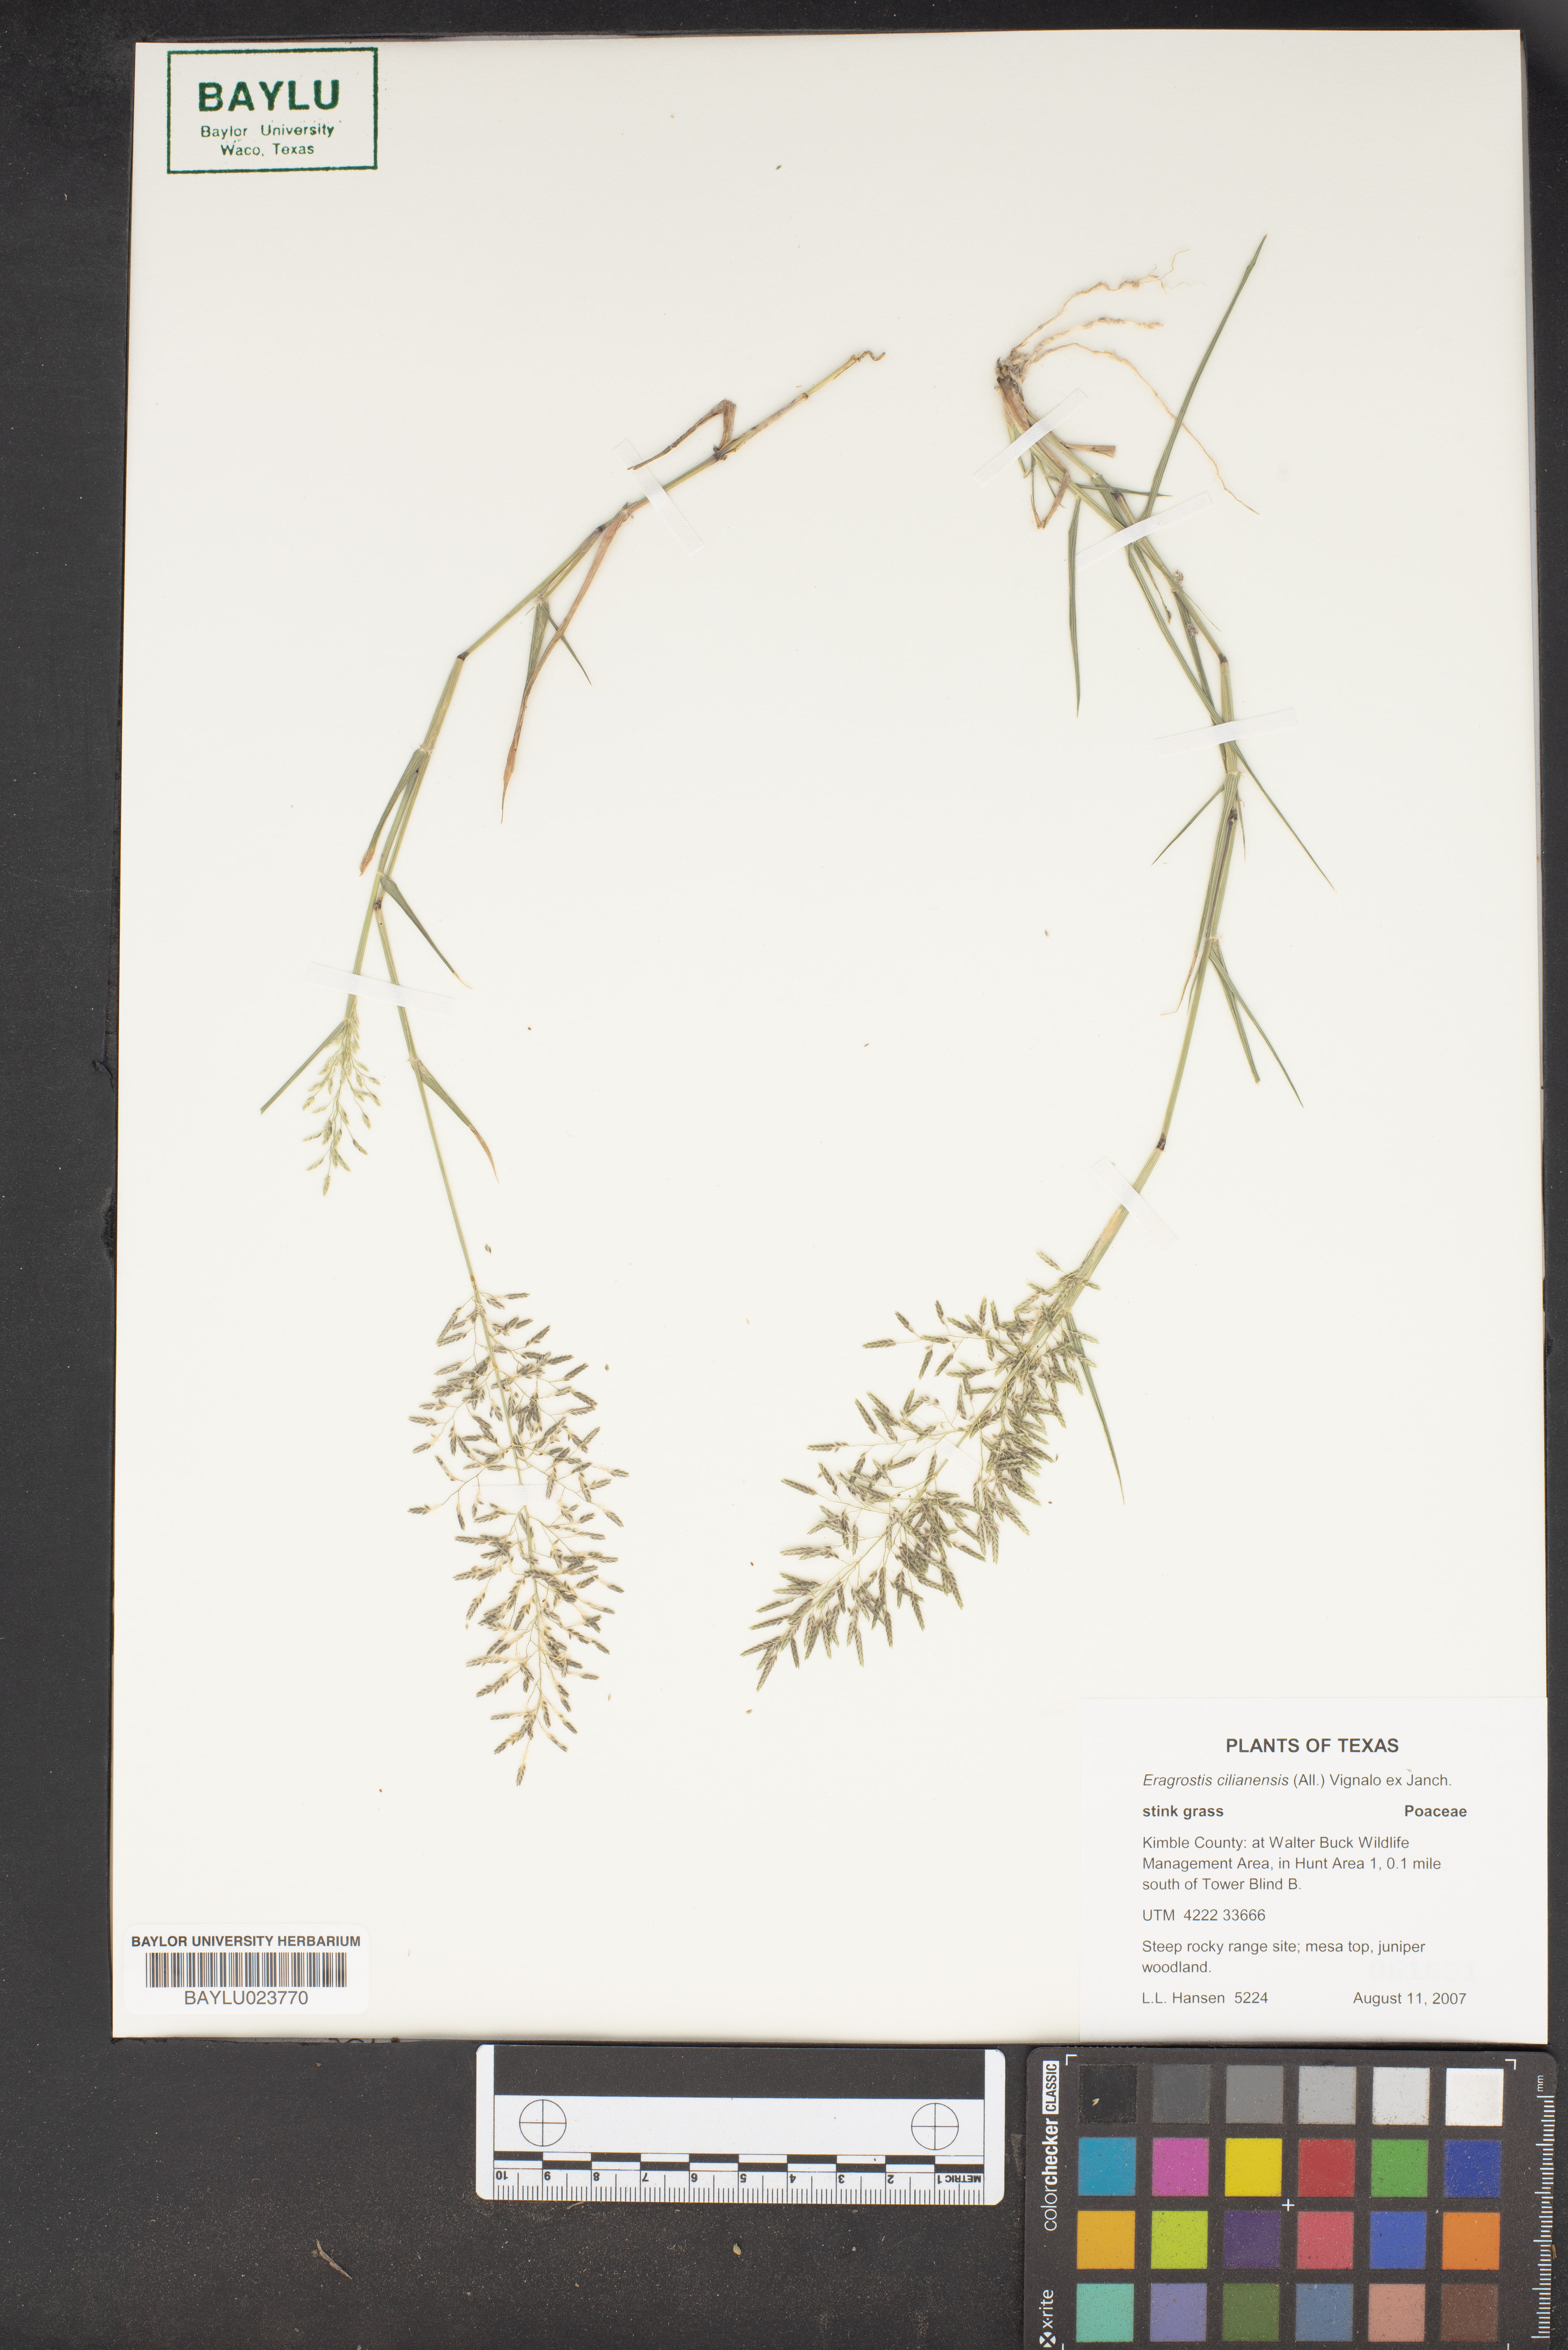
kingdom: Plantae
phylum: Tracheophyta
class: Liliopsida
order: Poales
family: Poaceae
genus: Eragrostis
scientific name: Eragrostis cilianensis
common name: Stinkgrass
